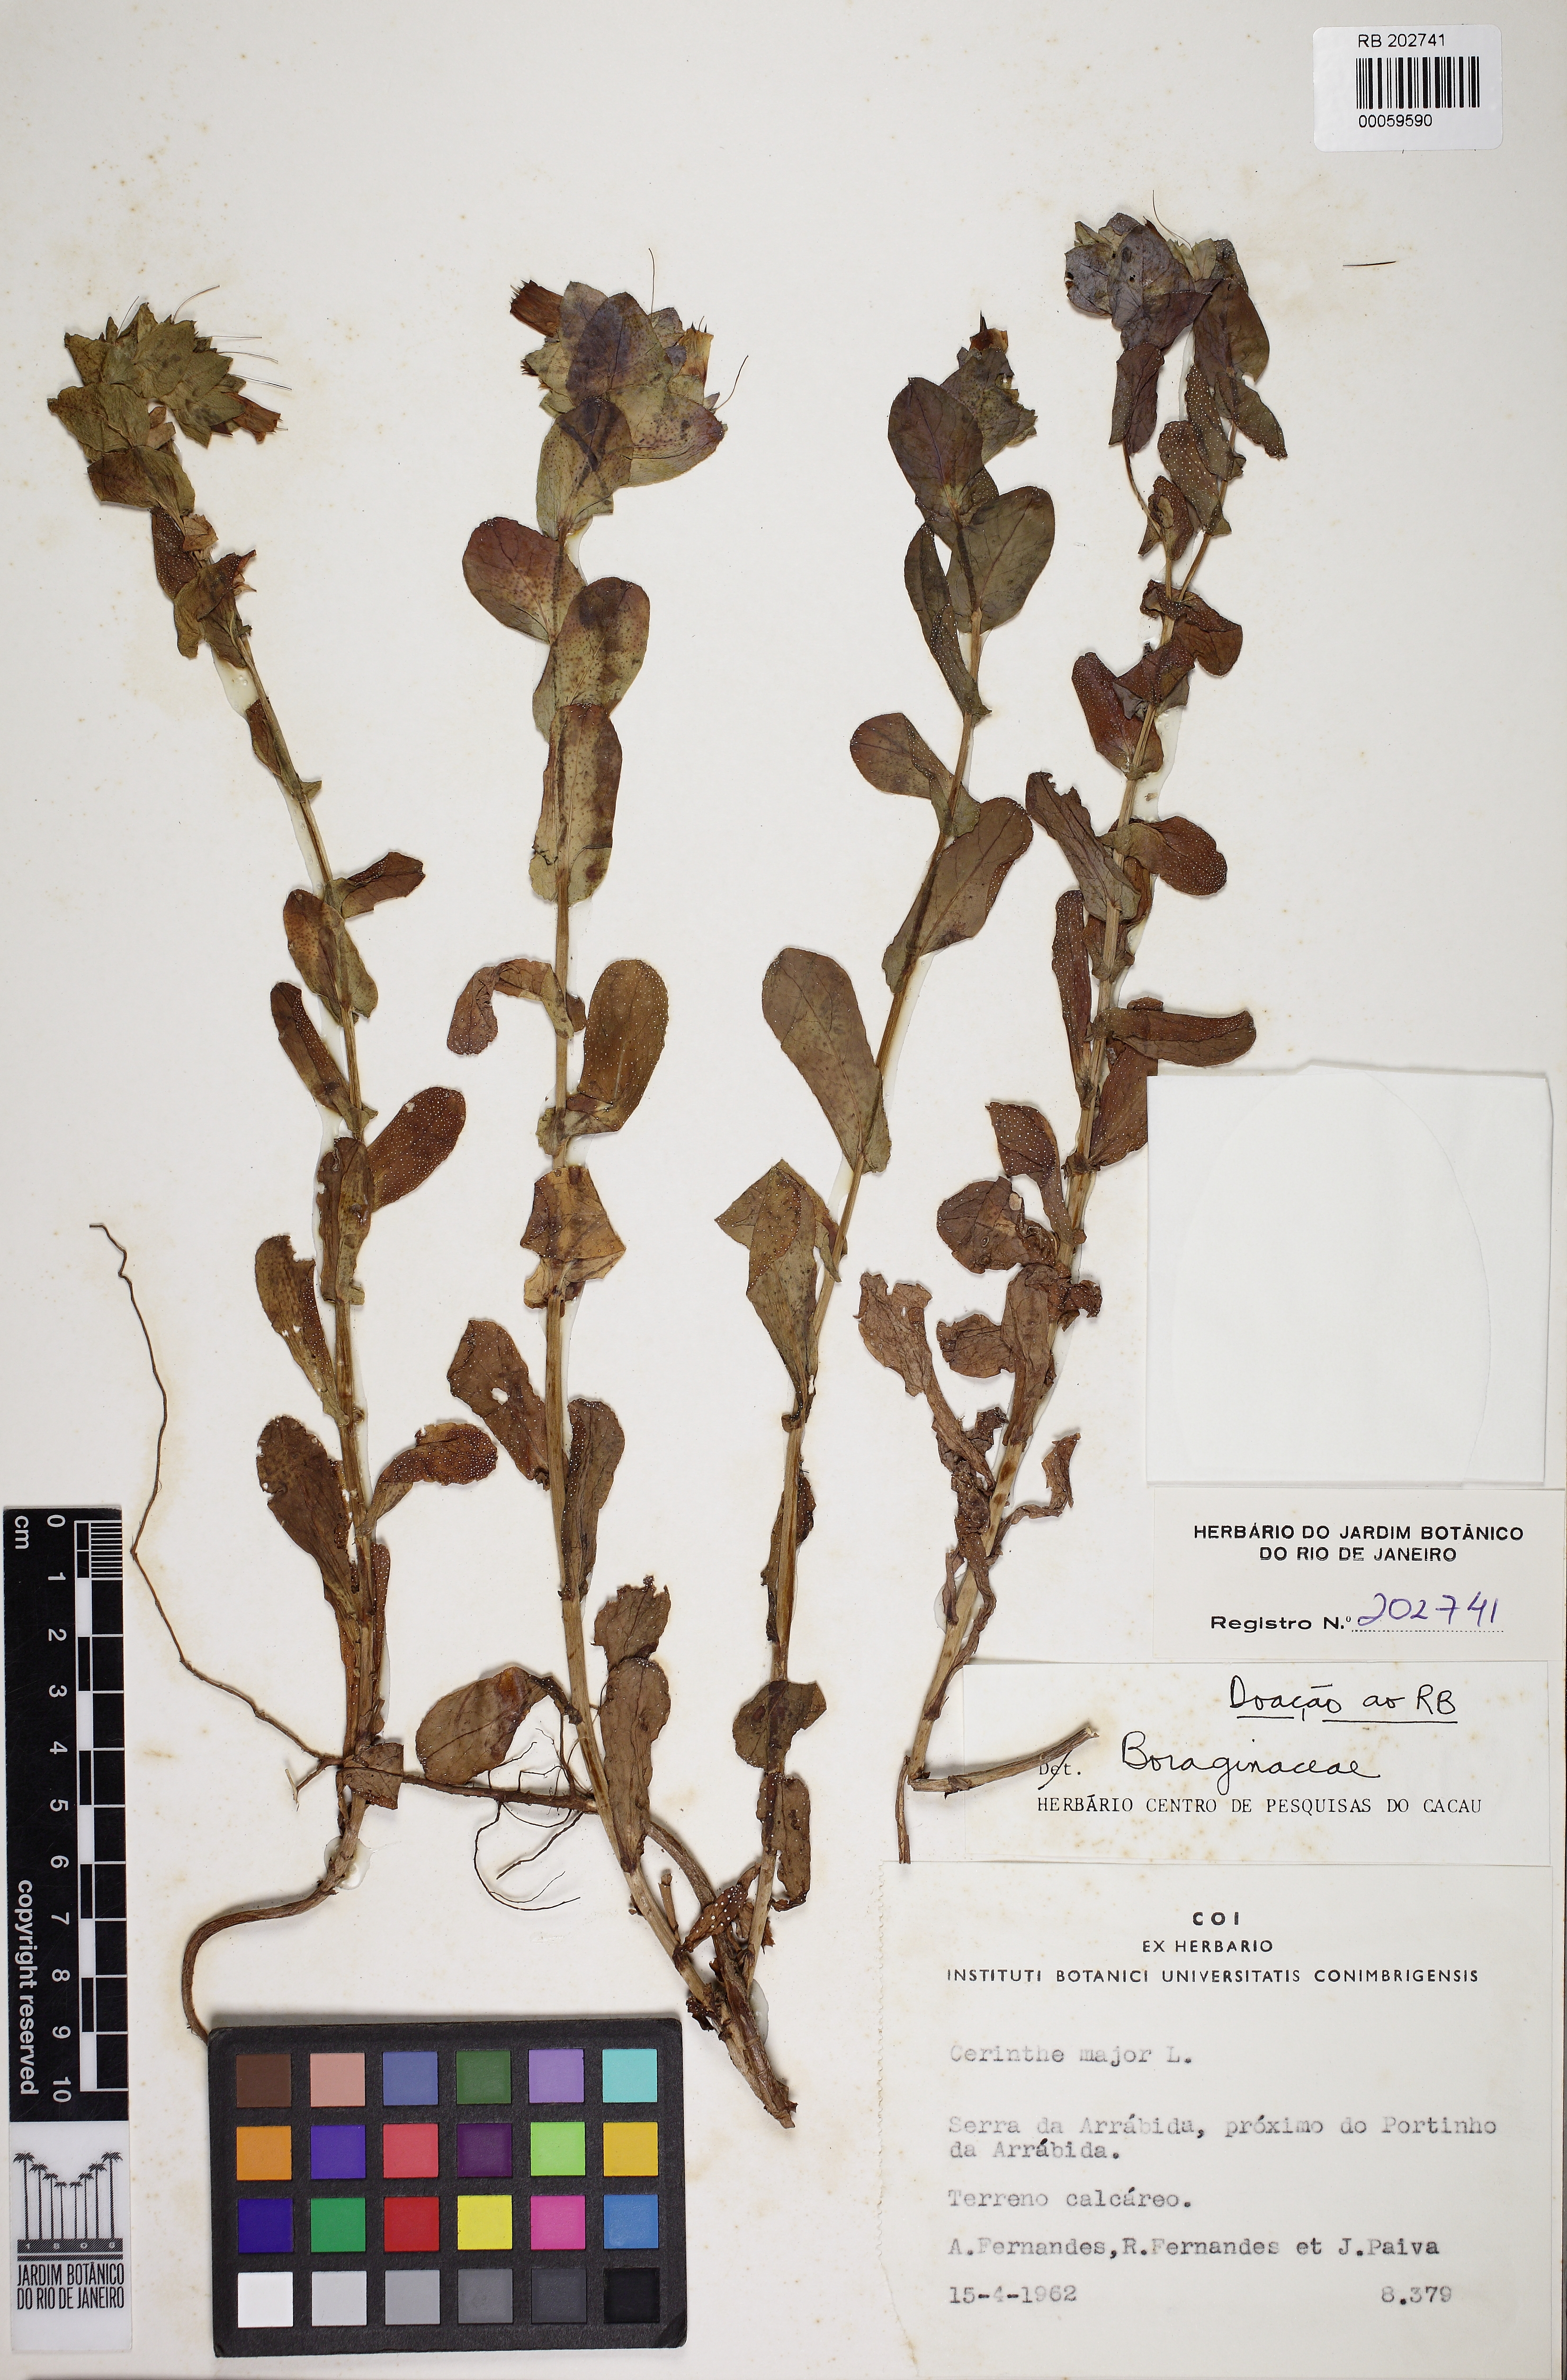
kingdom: Plantae
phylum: Tracheophyta
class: Magnoliopsida
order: Boraginales
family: Boraginaceae
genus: Cerinthe
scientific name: Cerinthe major
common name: Greater honeywort
